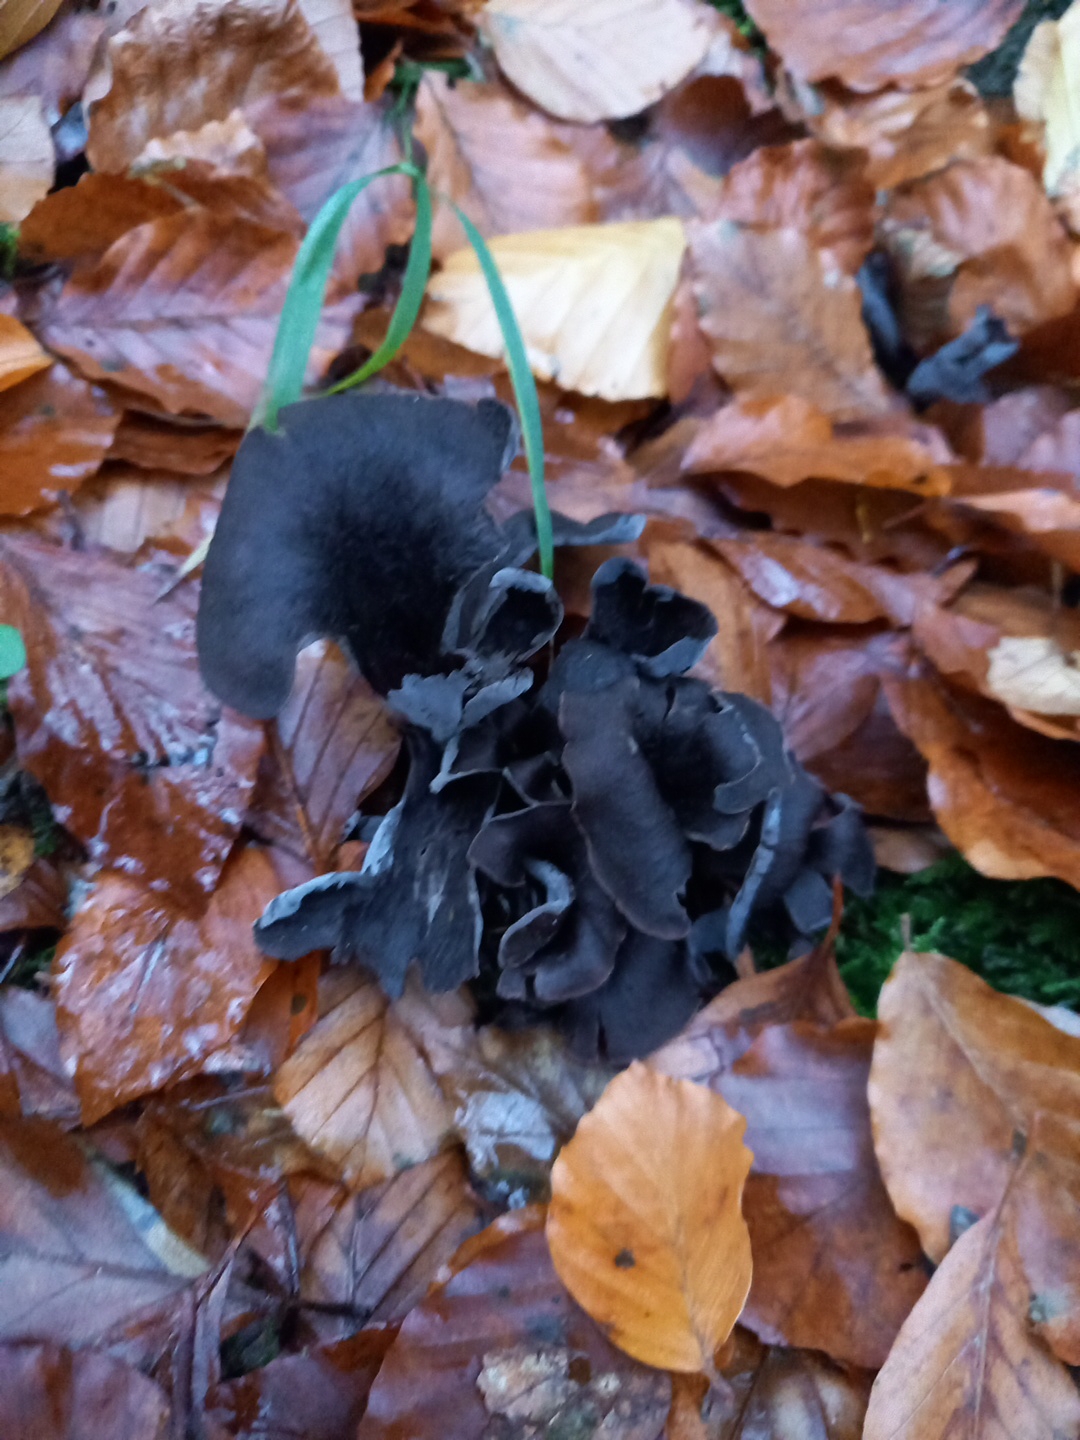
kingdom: Fungi
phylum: Basidiomycota
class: Agaricomycetes
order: Cantharellales
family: Hydnaceae
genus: Craterellus
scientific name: Craterellus cornucopioides
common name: trompetsvamp
